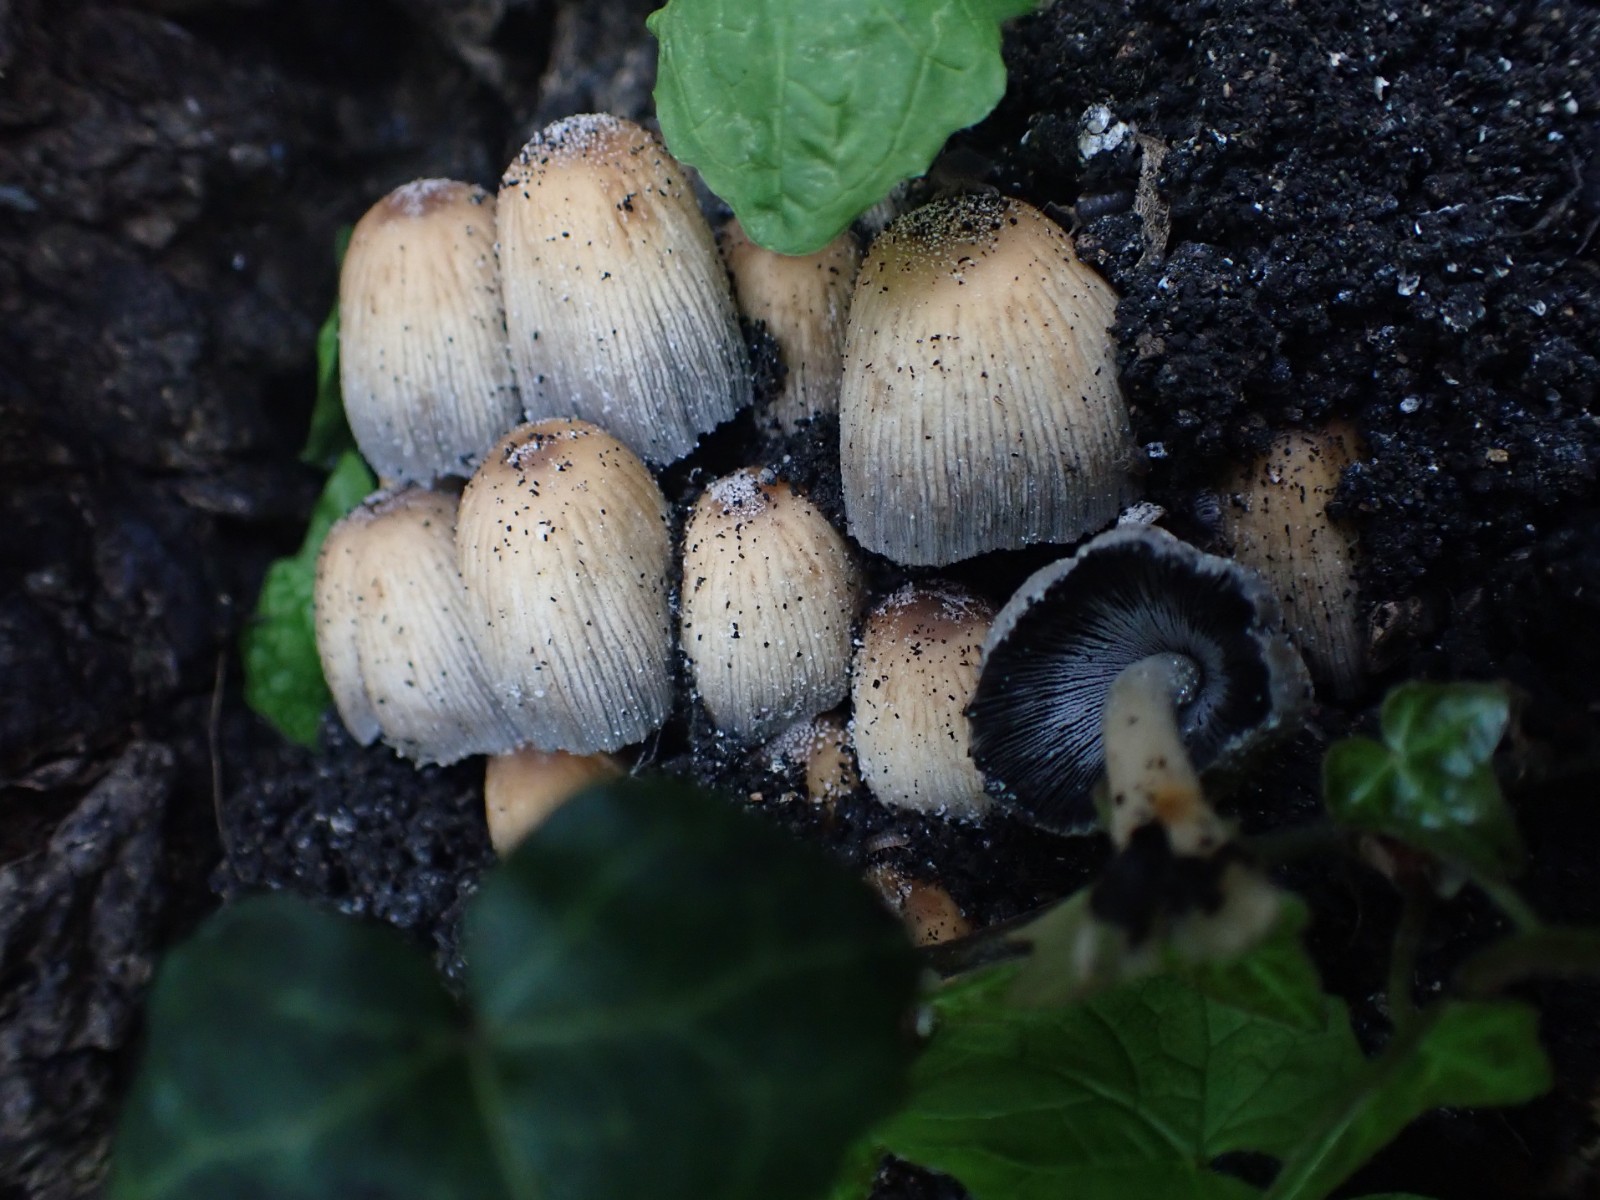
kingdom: Fungi
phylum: Basidiomycota
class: Agaricomycetes
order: Agaricales
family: Psathyrellaceae
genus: Coprinellus
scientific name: Coprinellus micaceus
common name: glimmer-blækhat
